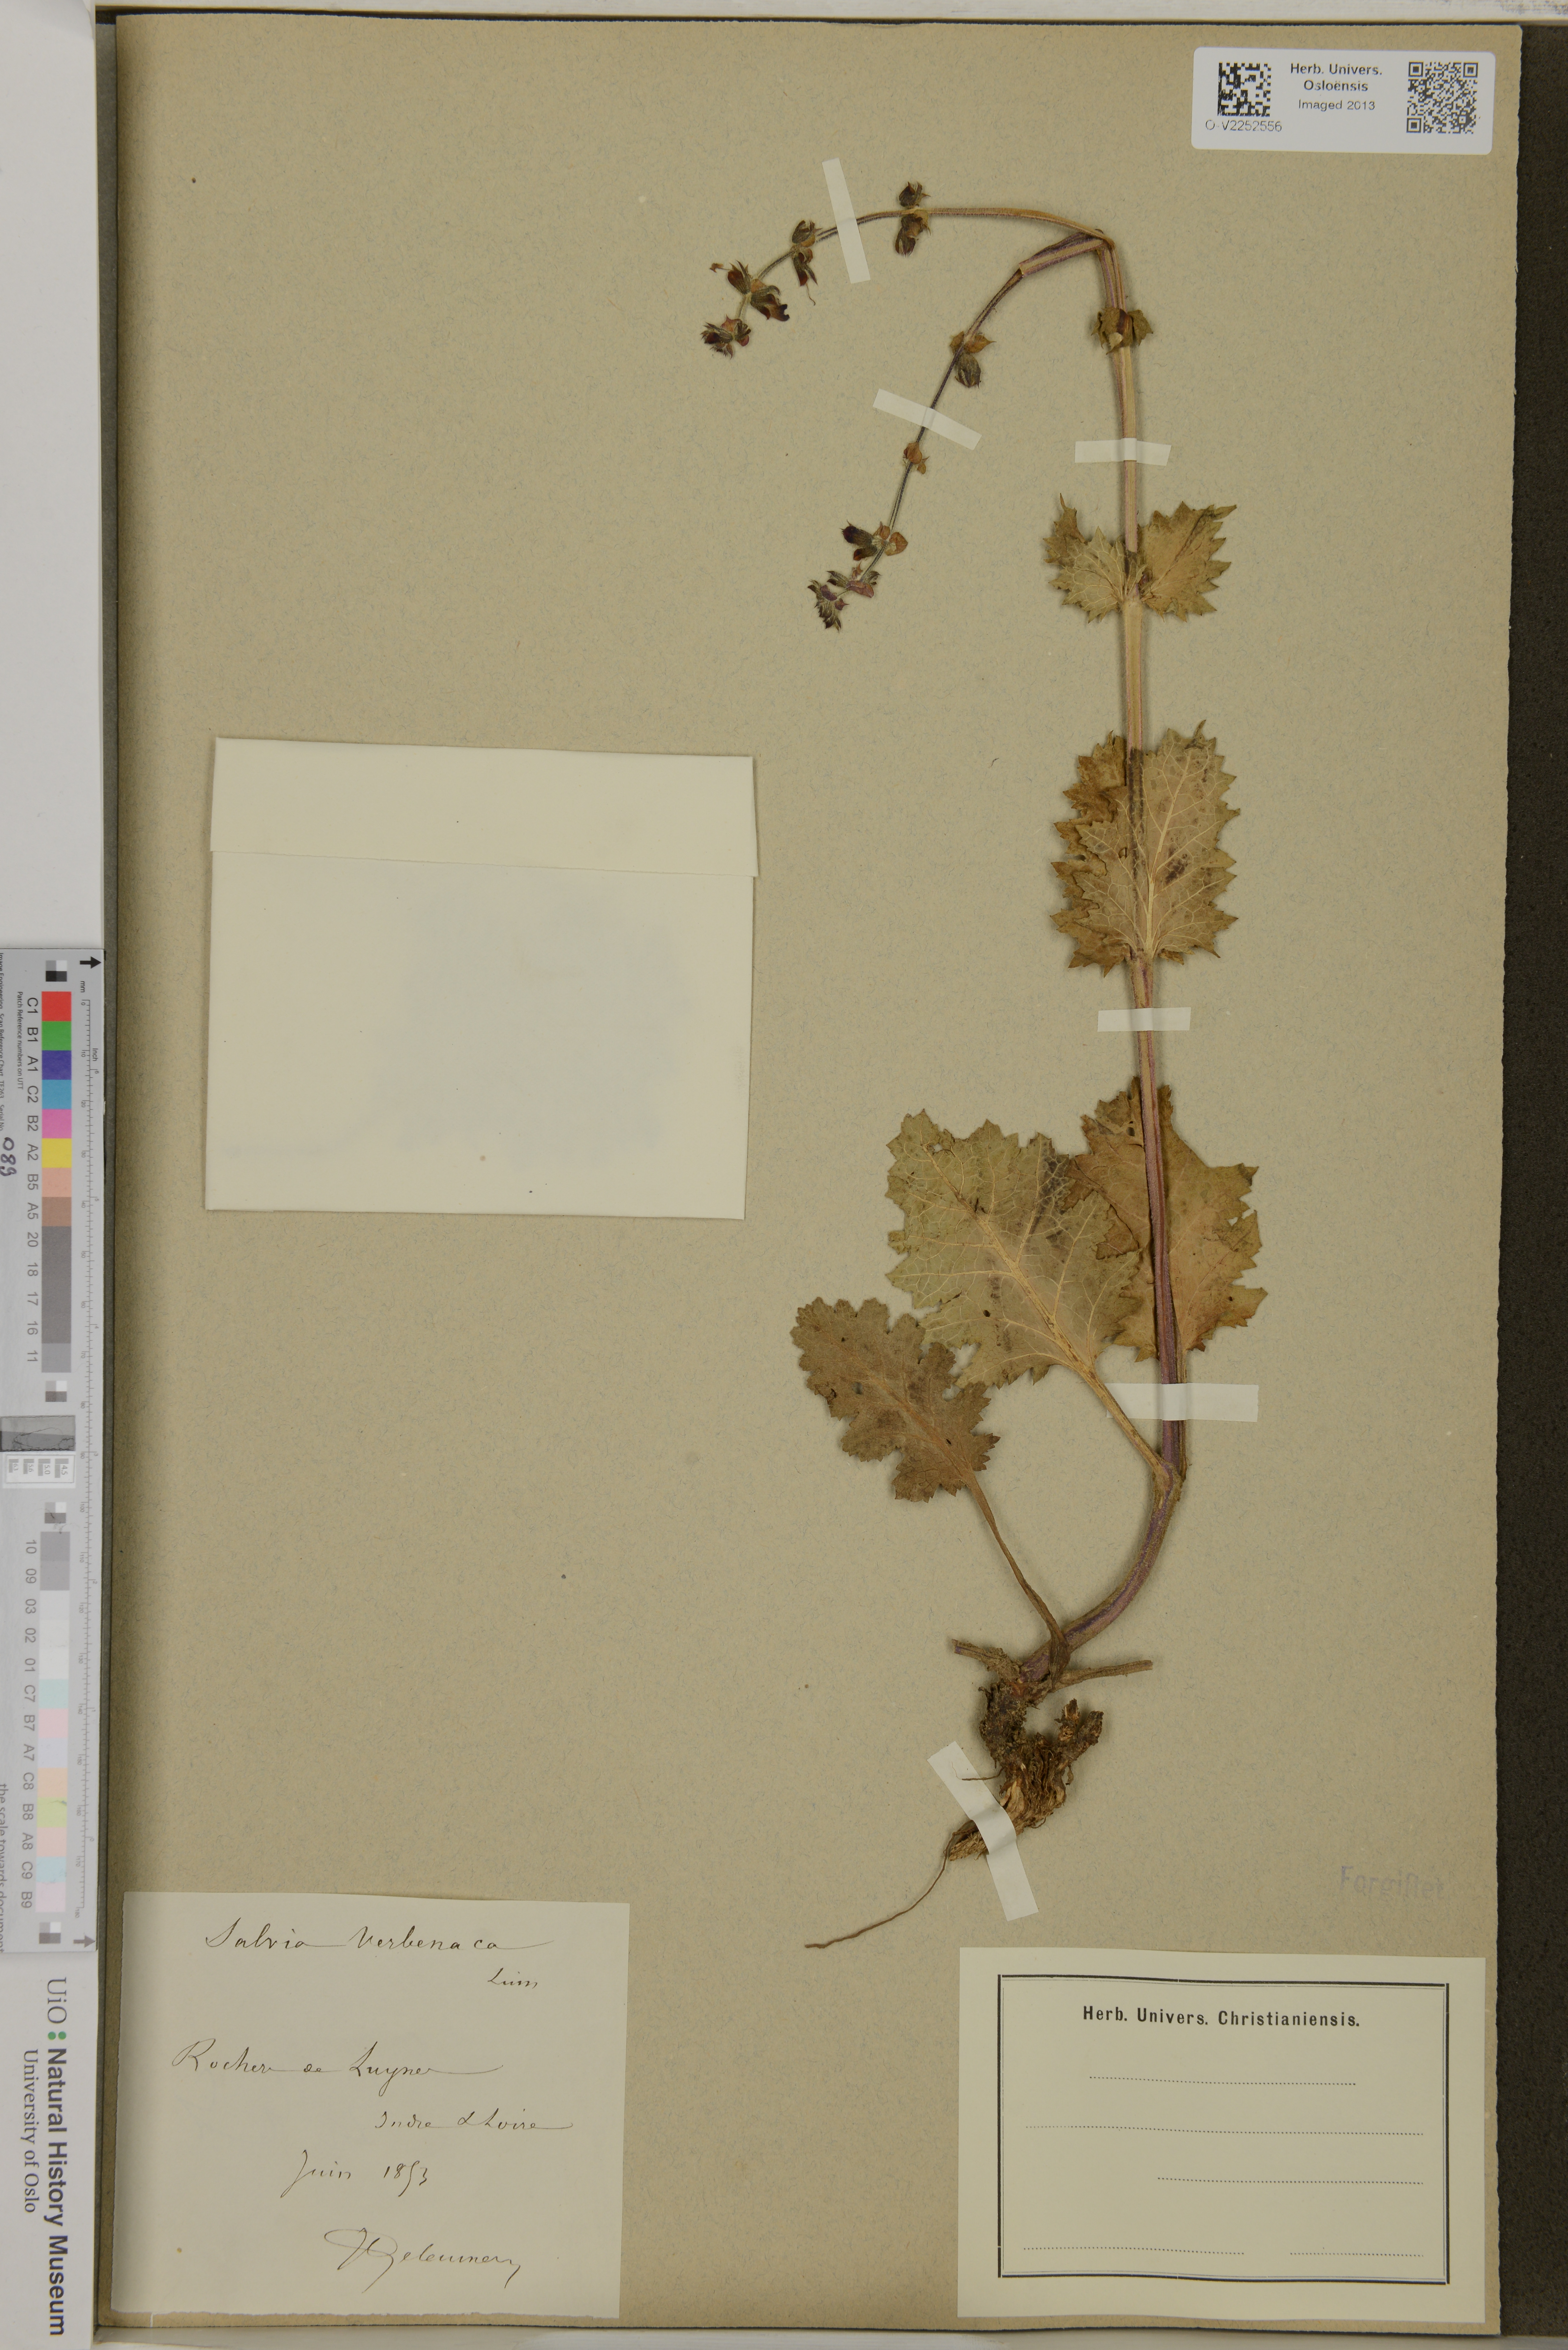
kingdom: Plantae
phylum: Tracheophyta
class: Magnoliopsida
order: Lamiales
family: Lamiaceae
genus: Salvia
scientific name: Salvia verbenaca
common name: Wild clary
